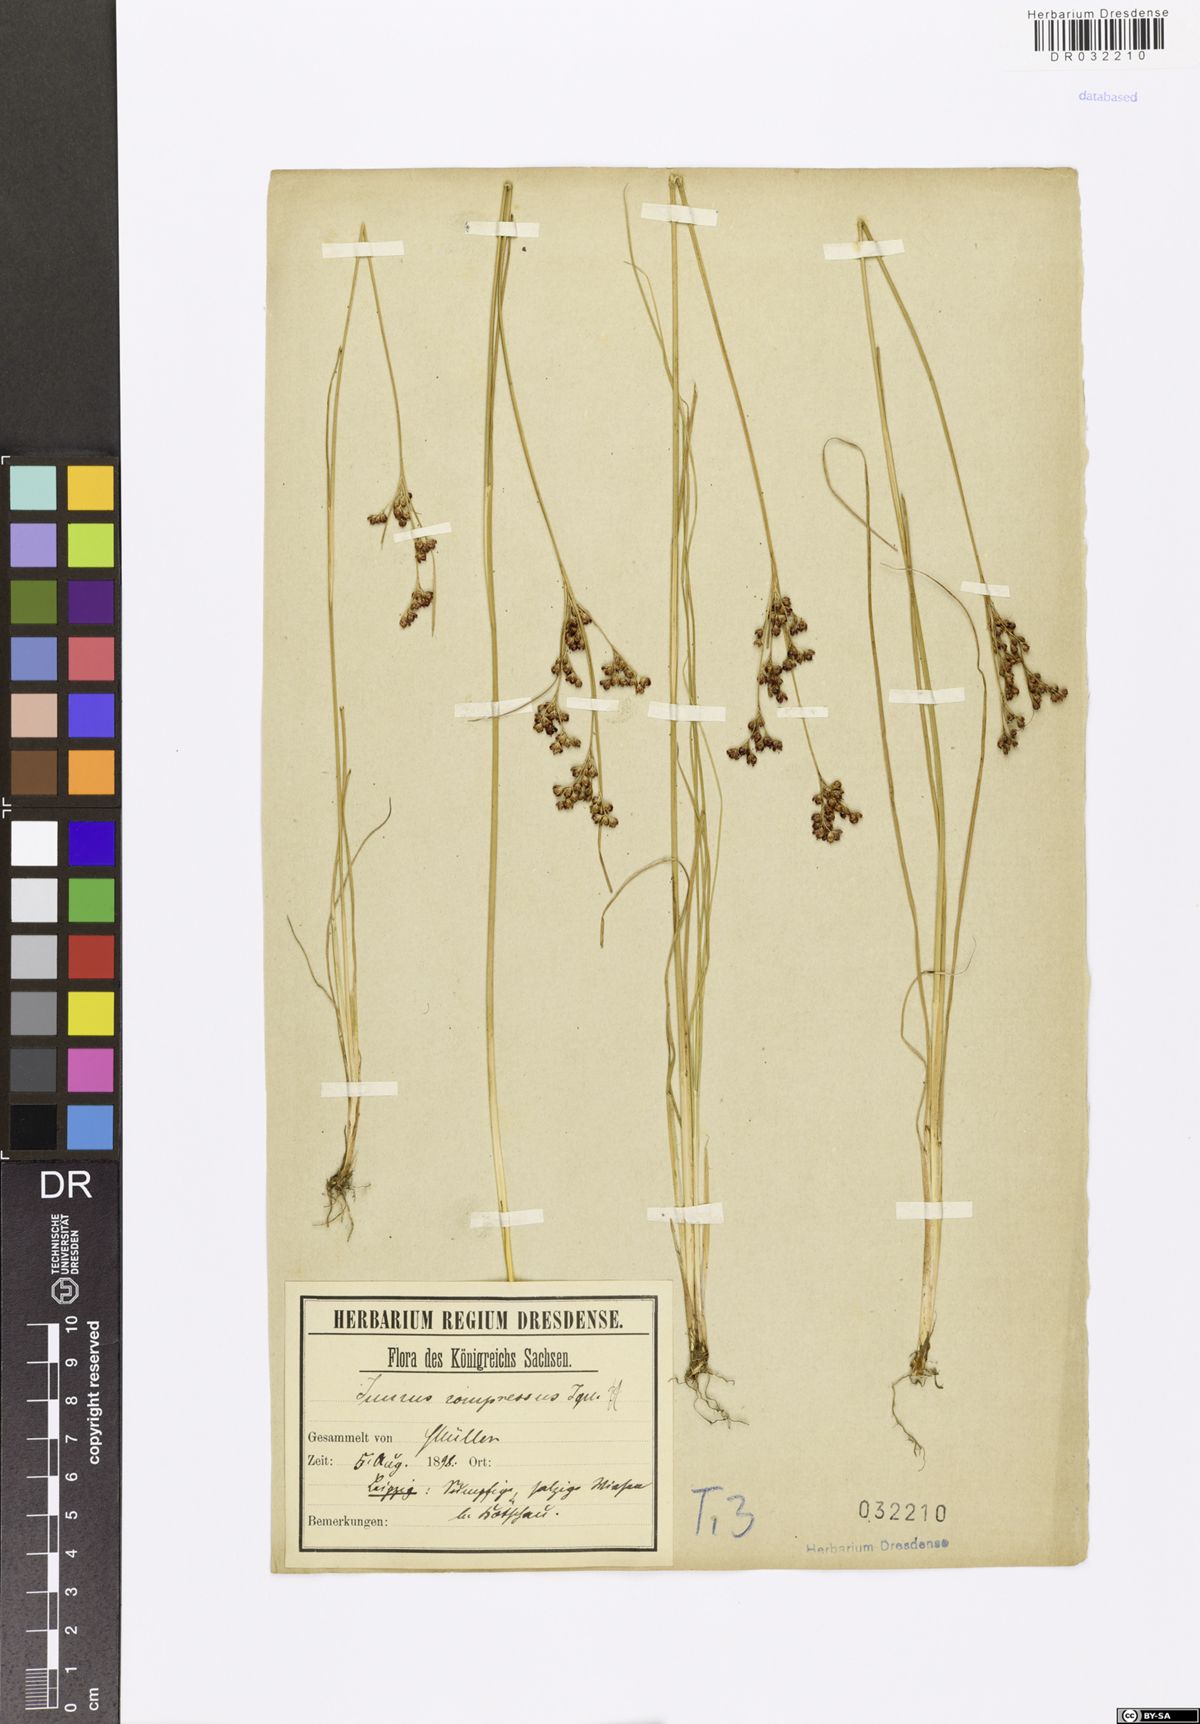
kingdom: Plantae
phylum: Tracheophyta
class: Liliopsida
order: Poales
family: Juncaceae
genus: Juncus
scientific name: Juncus compressus
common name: Round-fruited rush
